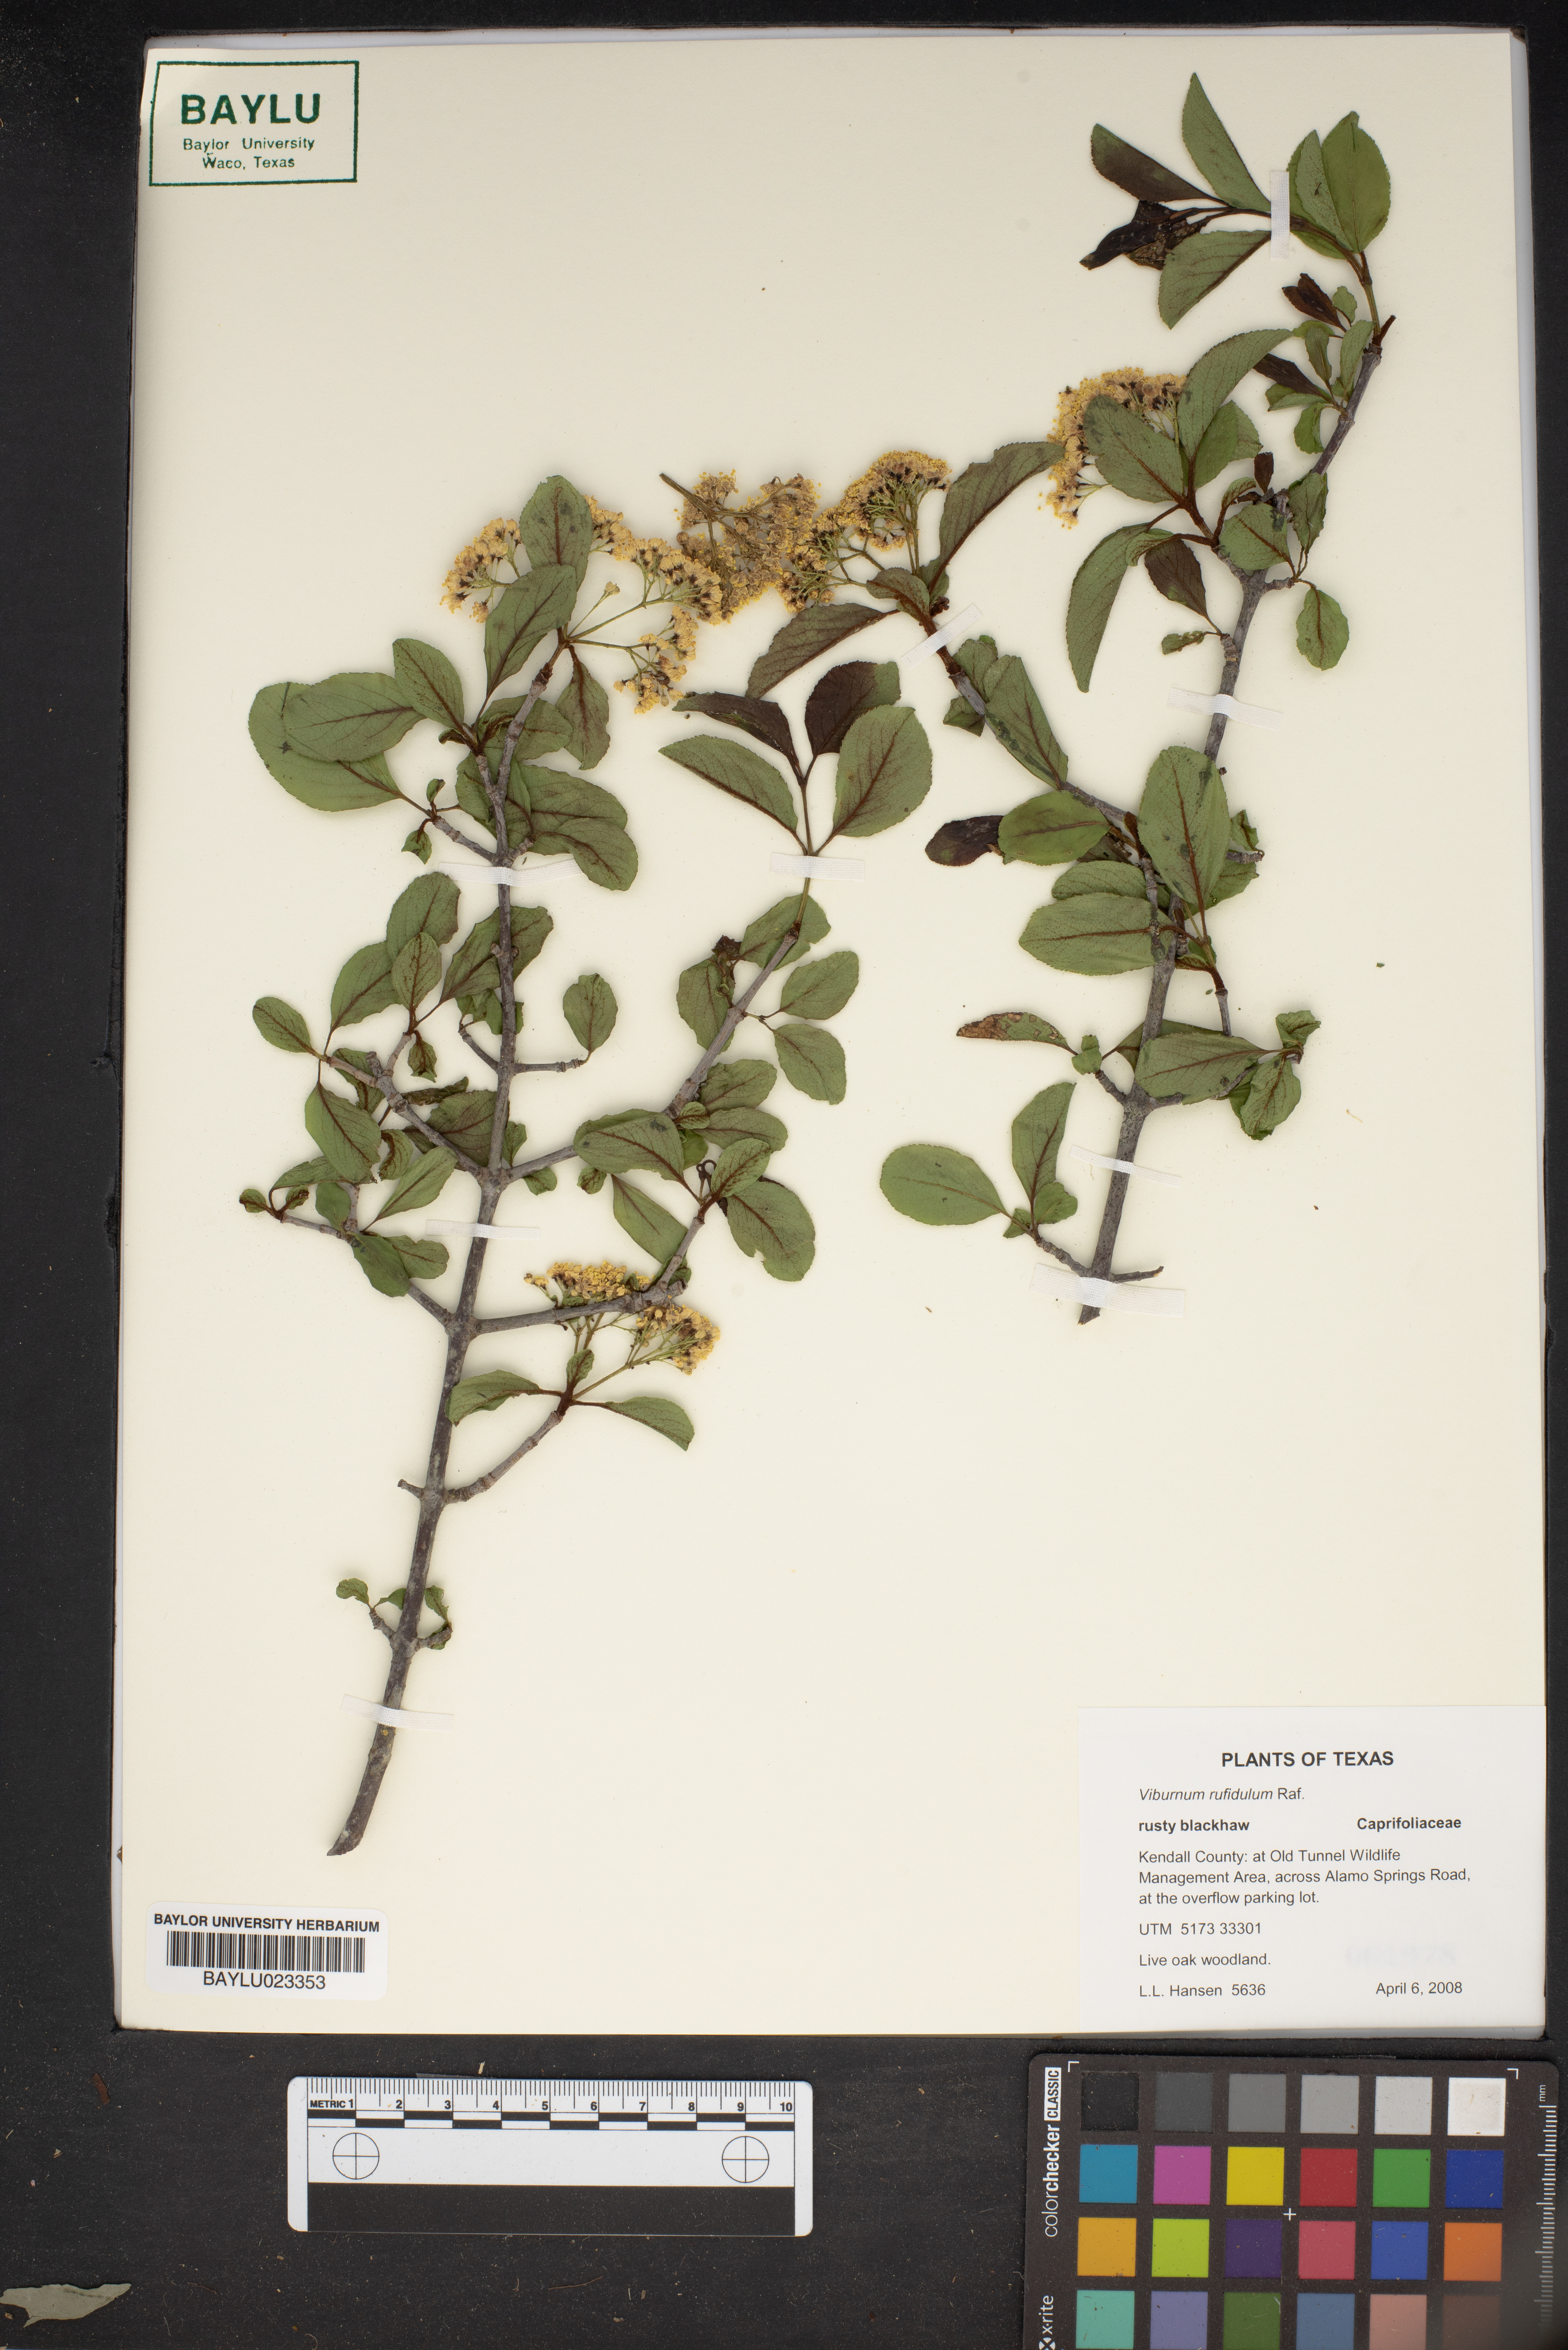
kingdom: Plantae
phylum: Tracheophyta
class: Magnoliopsida
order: Dipsacales
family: Viburnaceae
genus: Viburnum
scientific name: Viburnum rufidulum
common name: Blue haw
